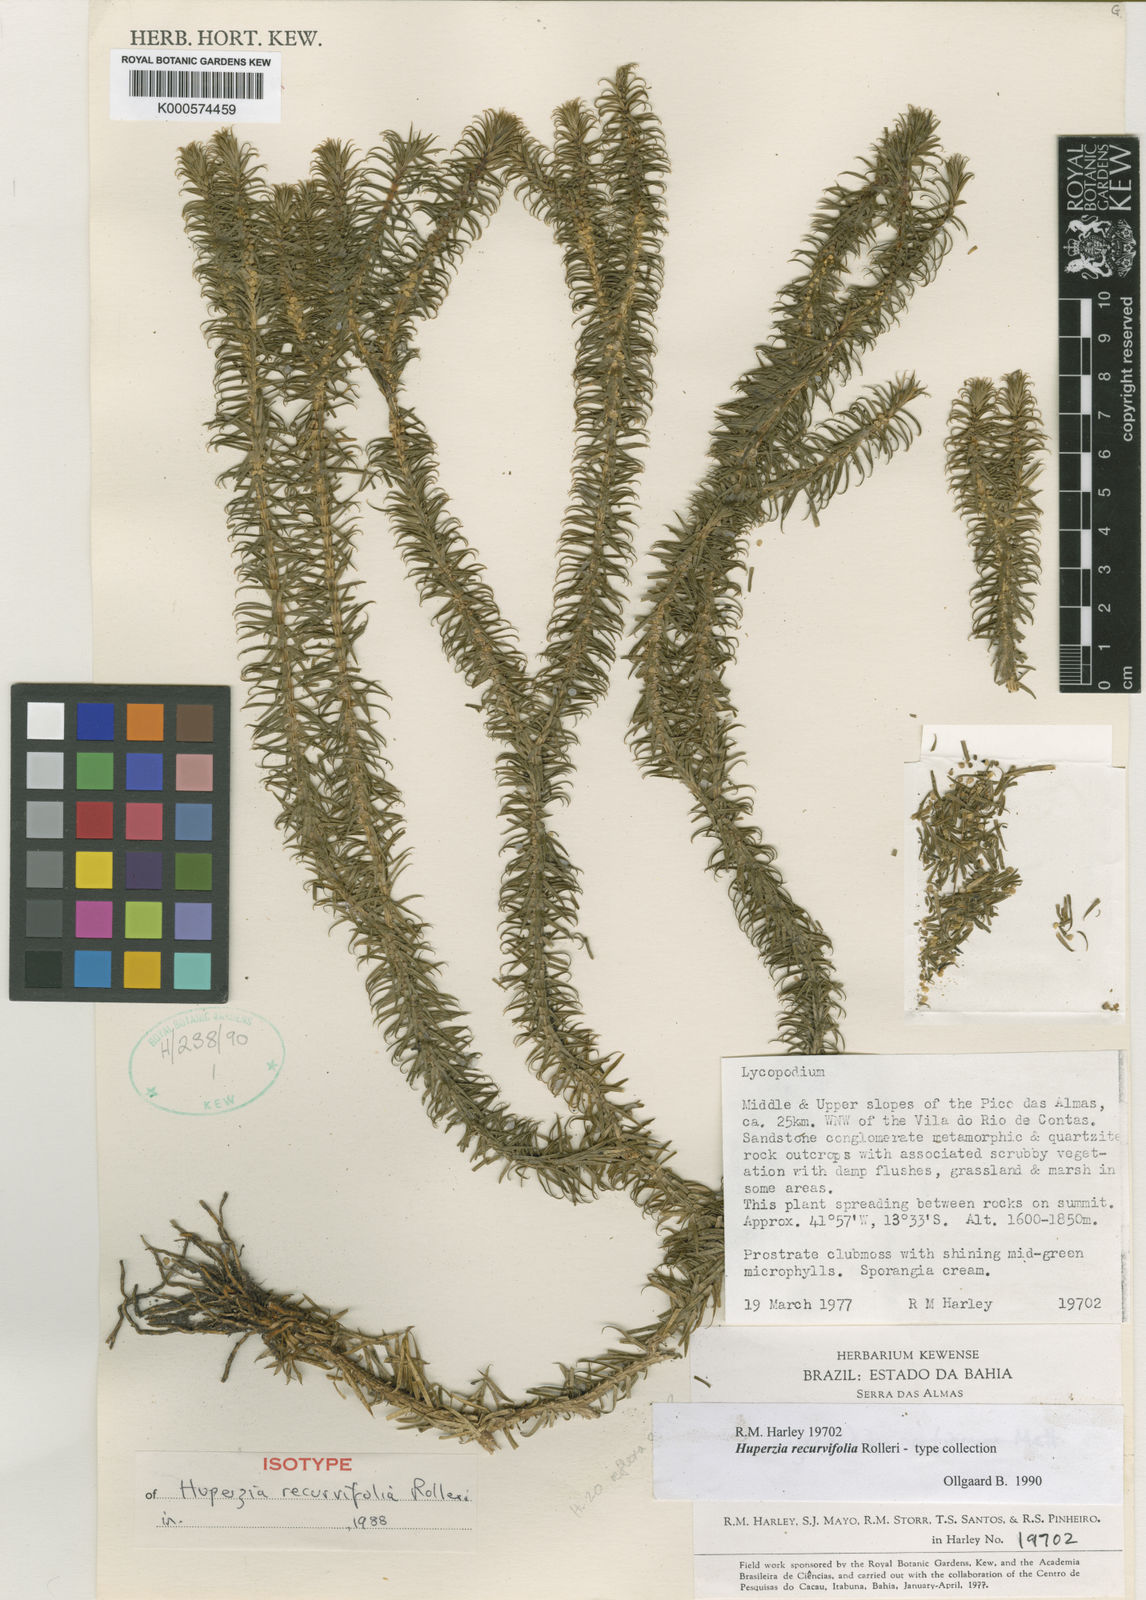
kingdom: Plantae
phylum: Tracheophyta
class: Lycopodiopsida
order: Lycopodiales
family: Lycopodiaceae
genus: Lycopodium
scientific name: Lycopodium
